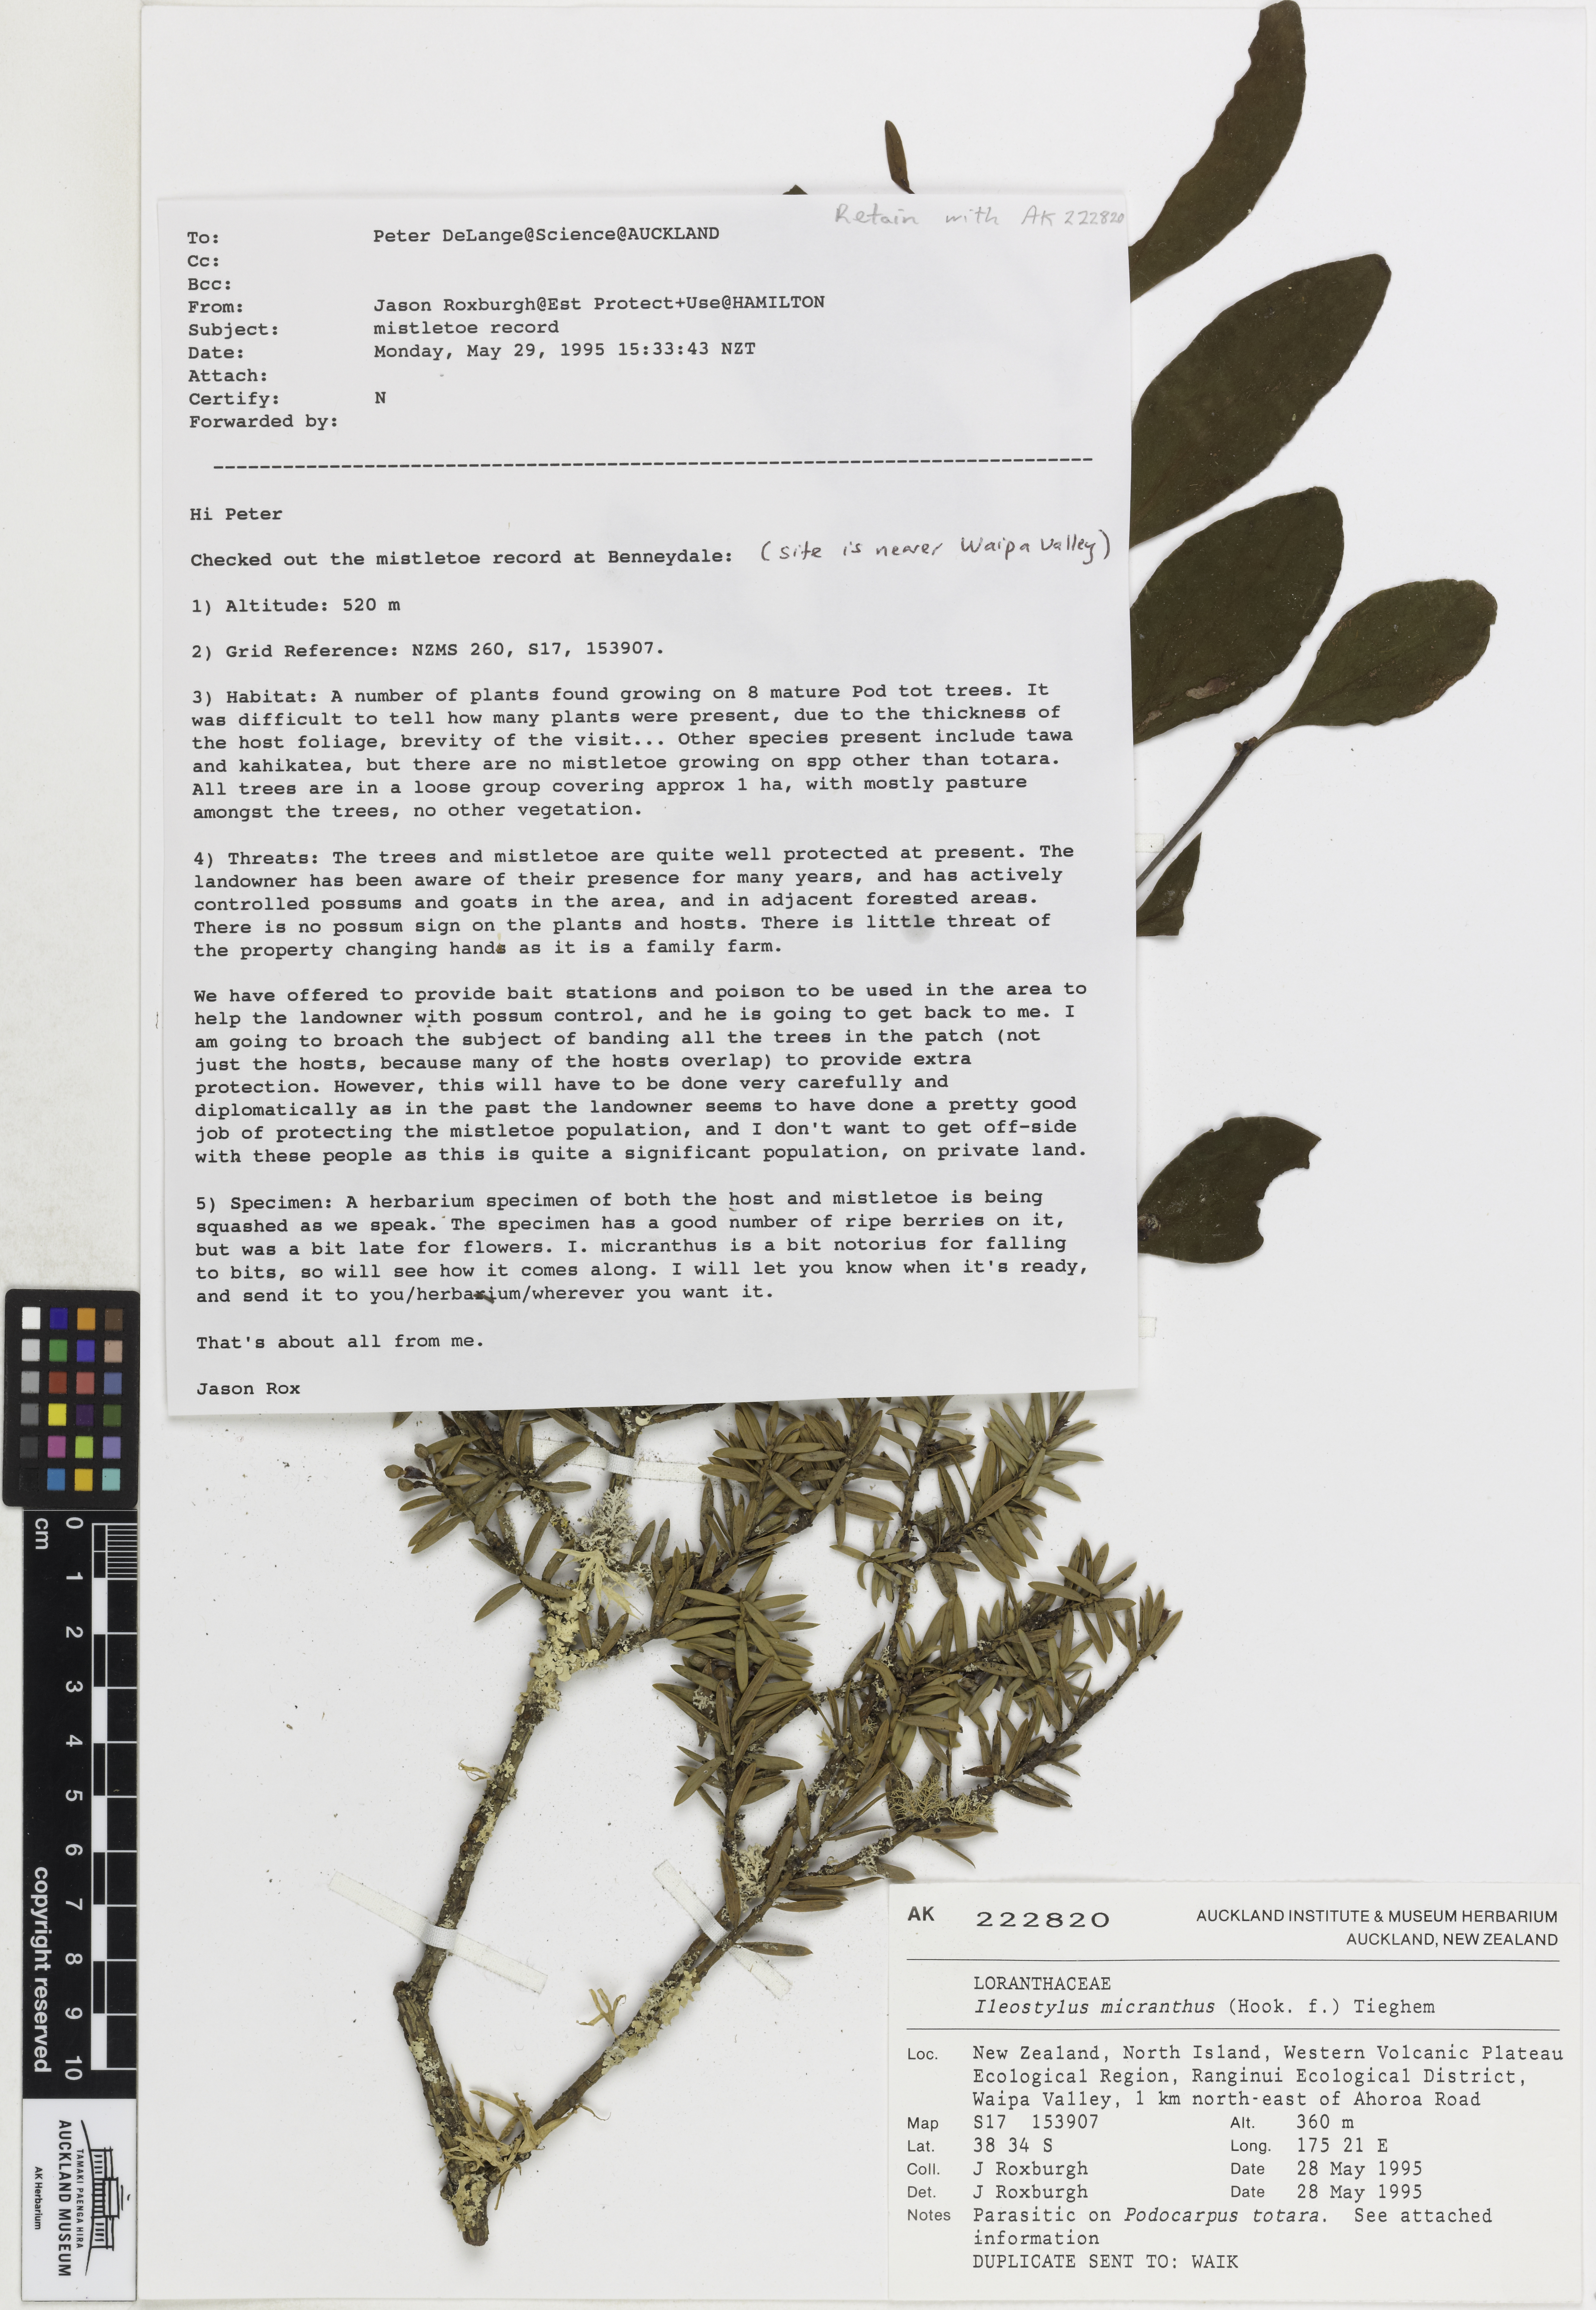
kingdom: Plantae
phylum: Tracheophyta
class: Magnoliopsida
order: Santalales
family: Loranthaceae
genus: Ileostylus
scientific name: Ileostylus micranthus
